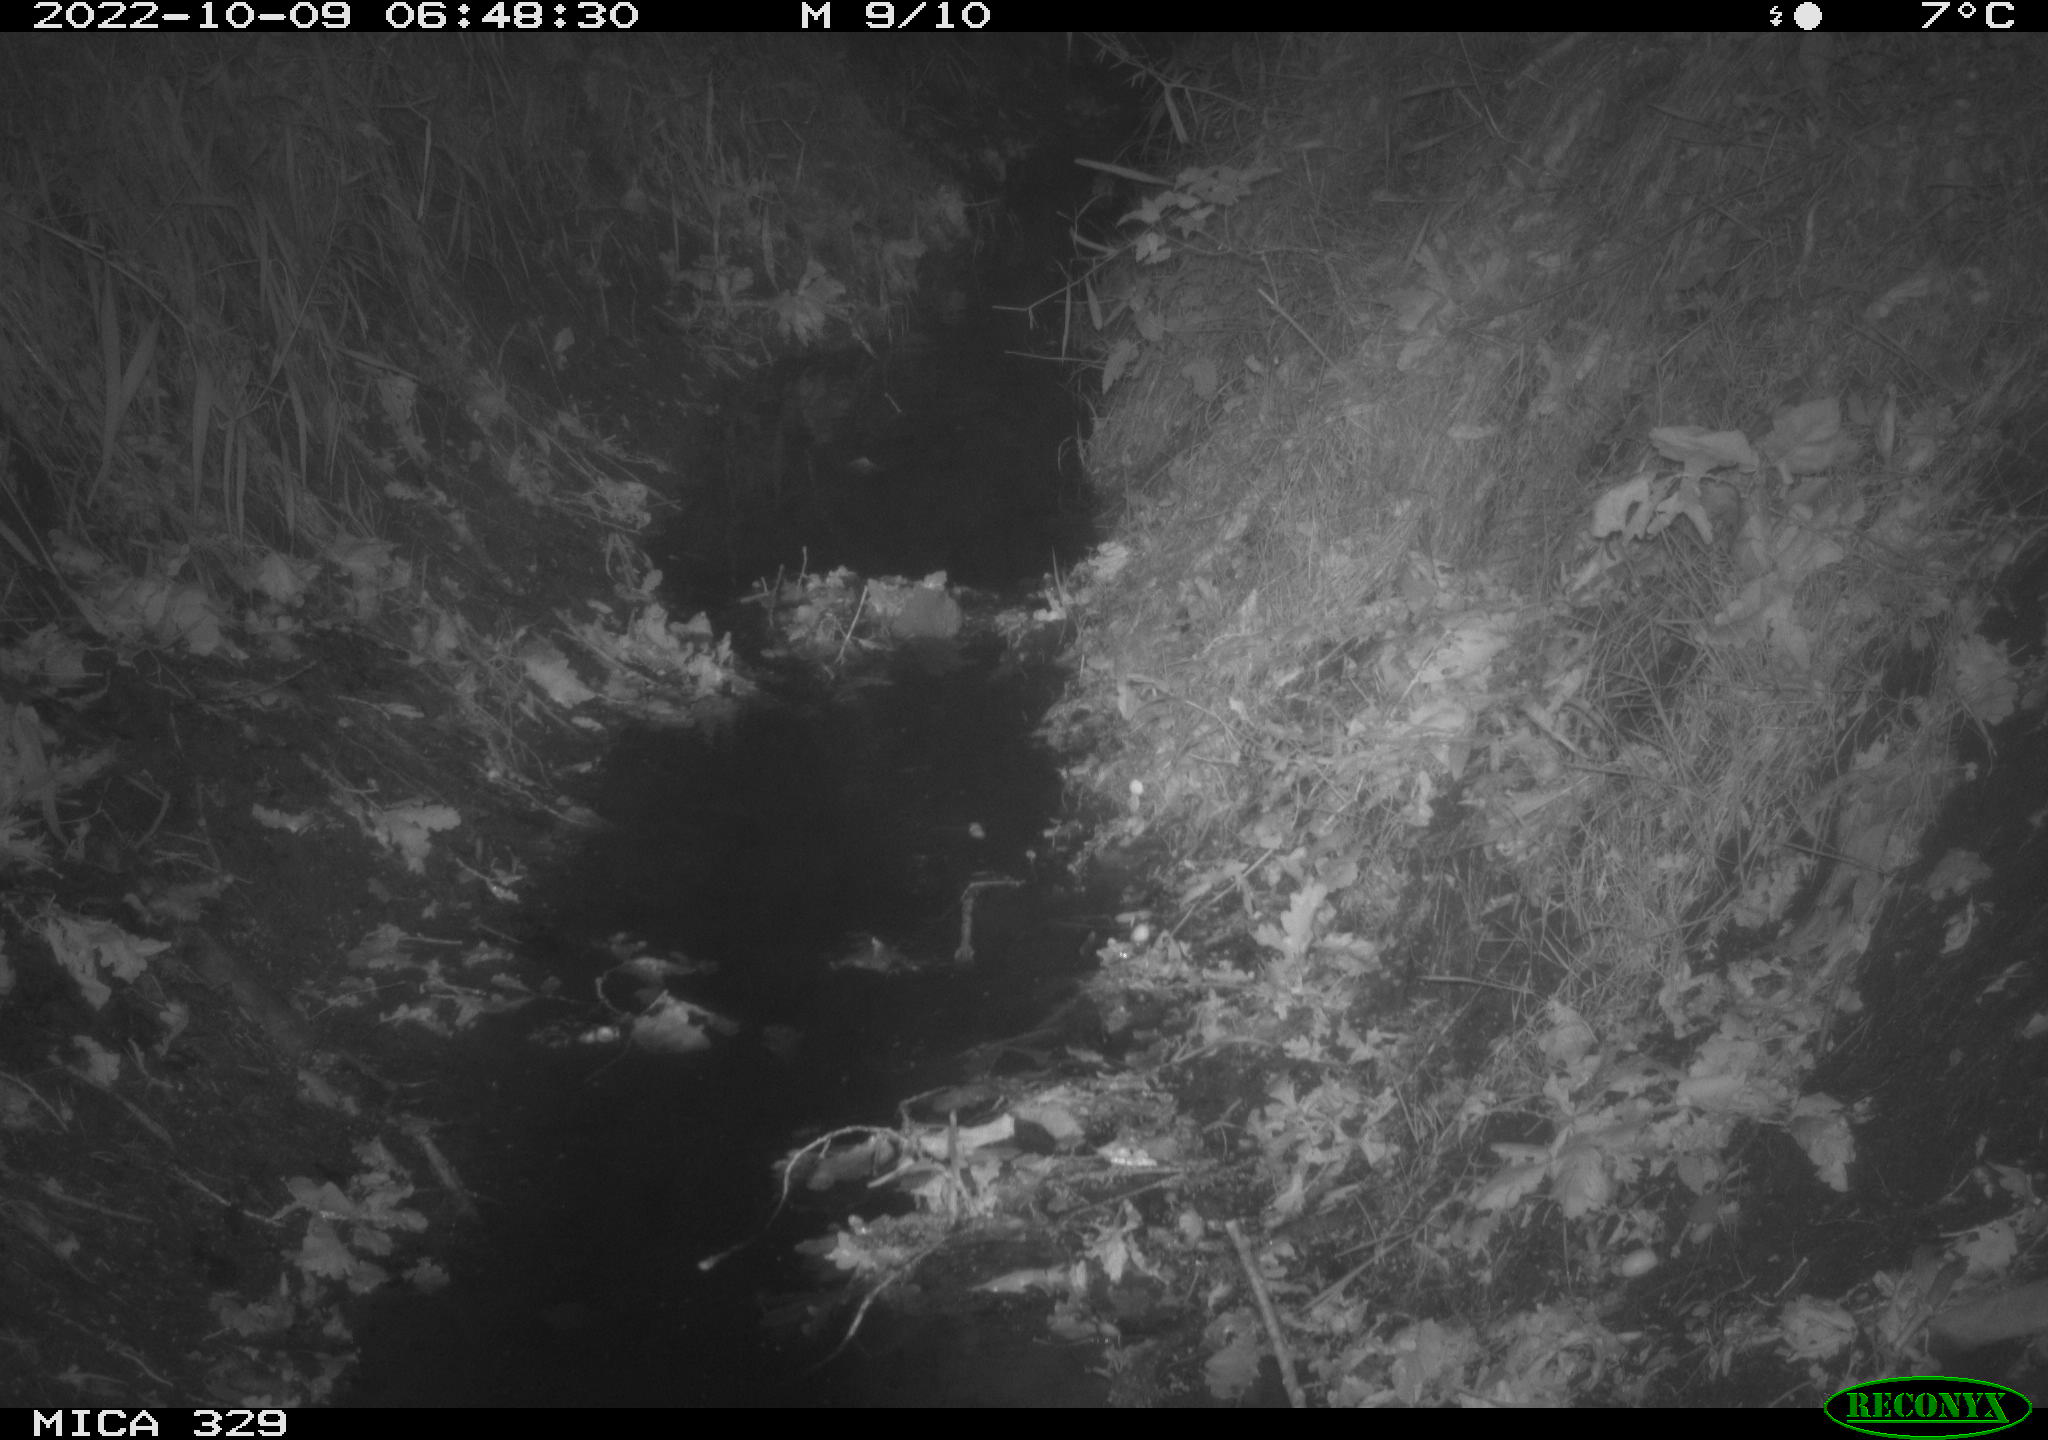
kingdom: Animalia
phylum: Chordata
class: Mammalia
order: Rodentia
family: Cricetidae
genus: Ondatra
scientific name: Ondatra zibethicus
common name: Muskrat
